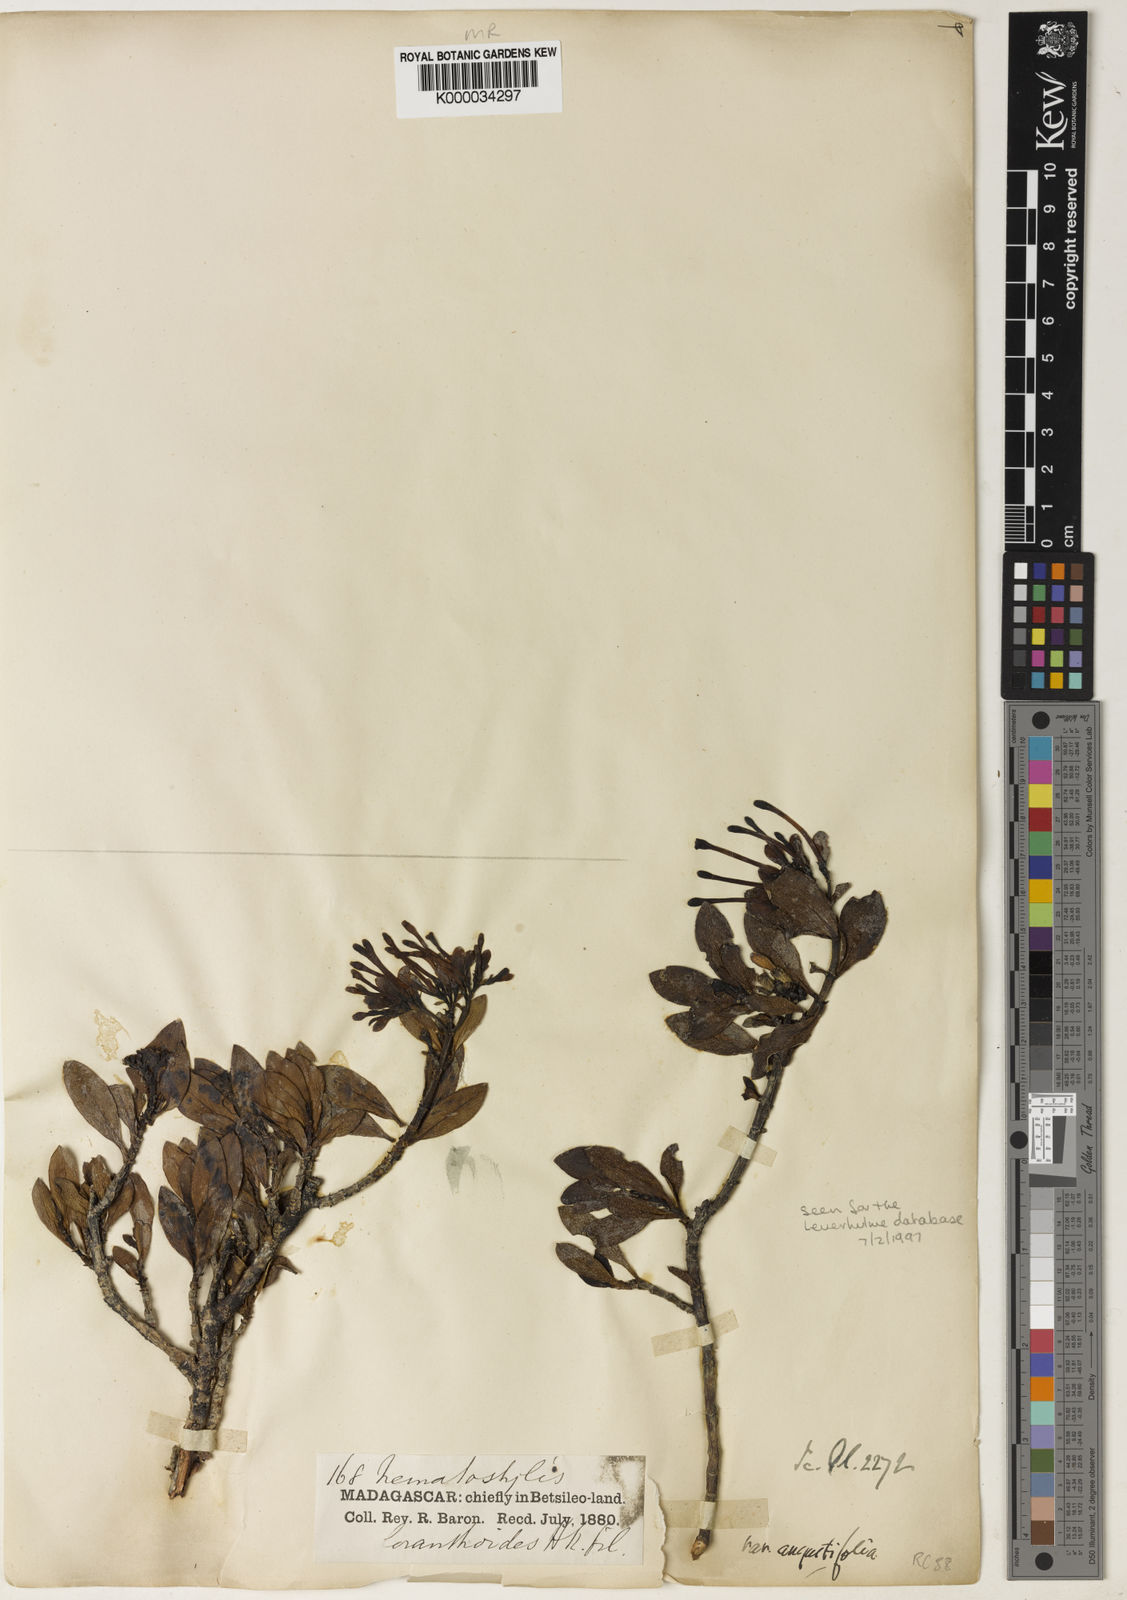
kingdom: Plantae
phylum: Tracheophyta
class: Magnoliopsida
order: Gentianales
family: Rubiaceae
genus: Nematostylis
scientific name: Nematostylis anthophylla
